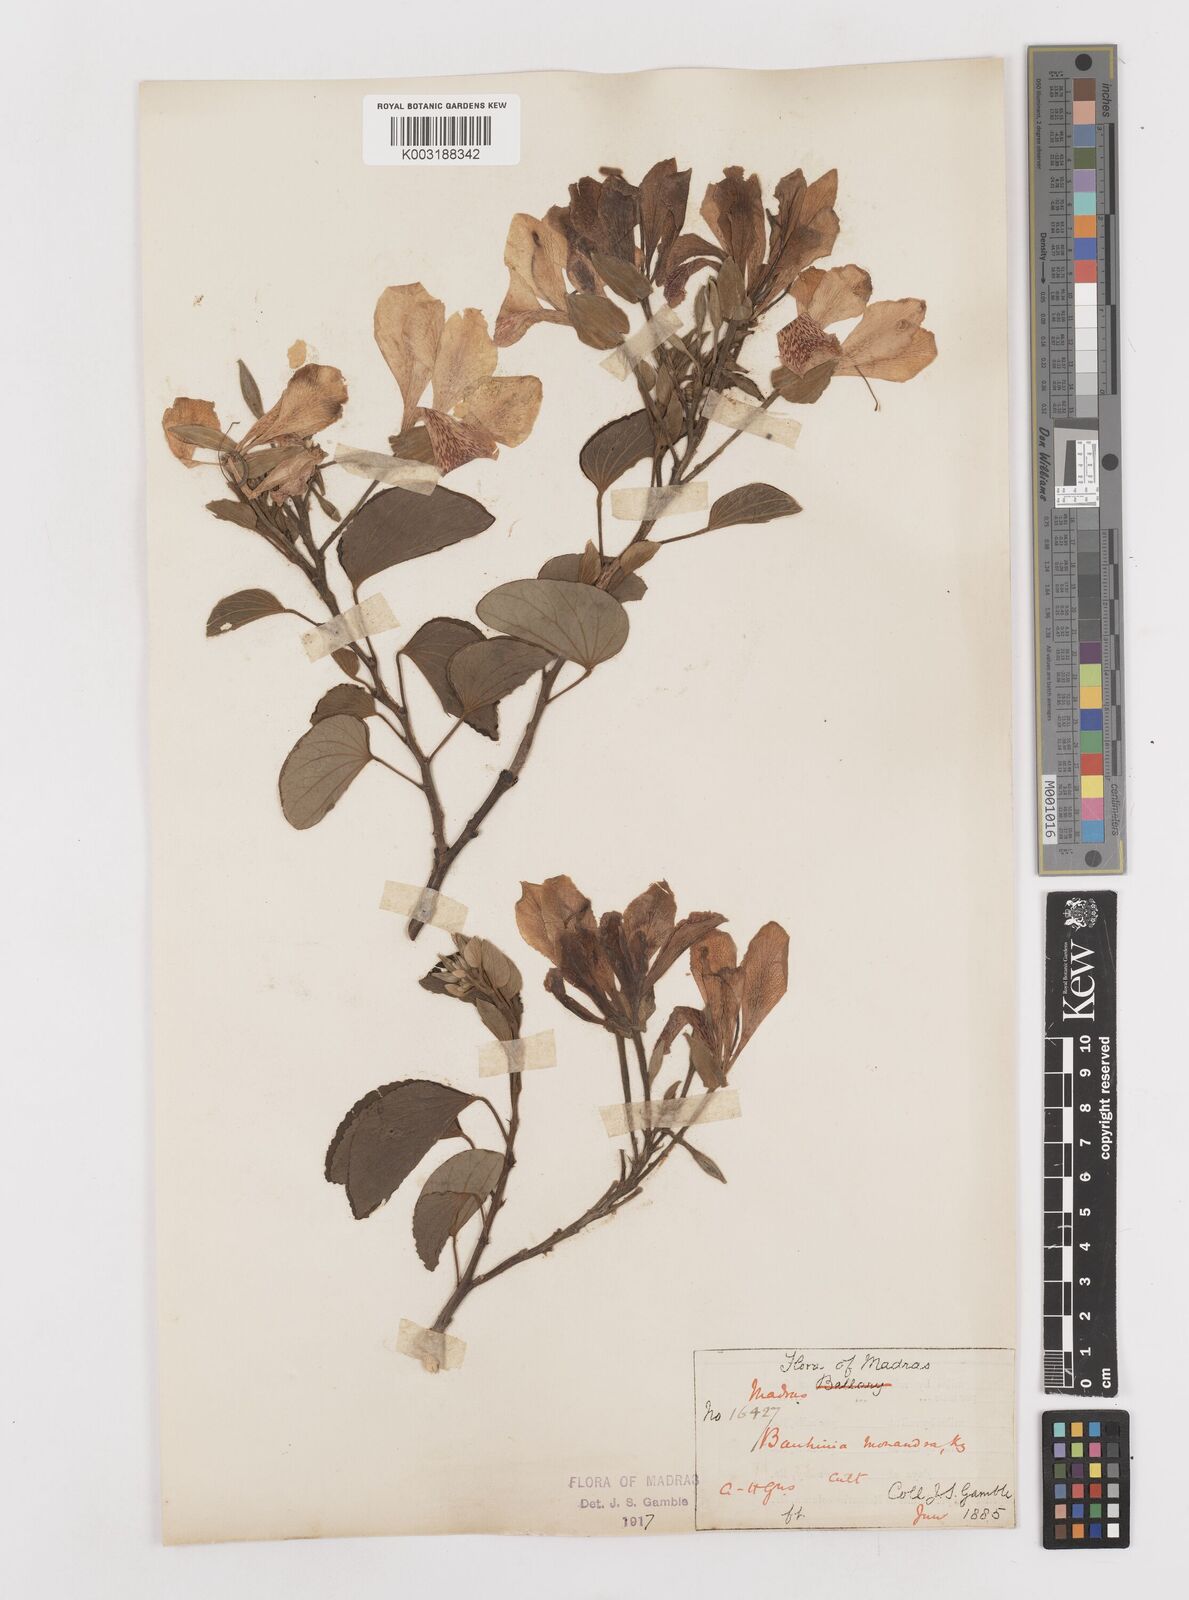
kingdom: Plantae
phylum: Tracheophyta
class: Magnoliopsida
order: Fabales
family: Fabaceae
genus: Bauhinia
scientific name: Bauhinia monandra
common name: Napoleon's plume
